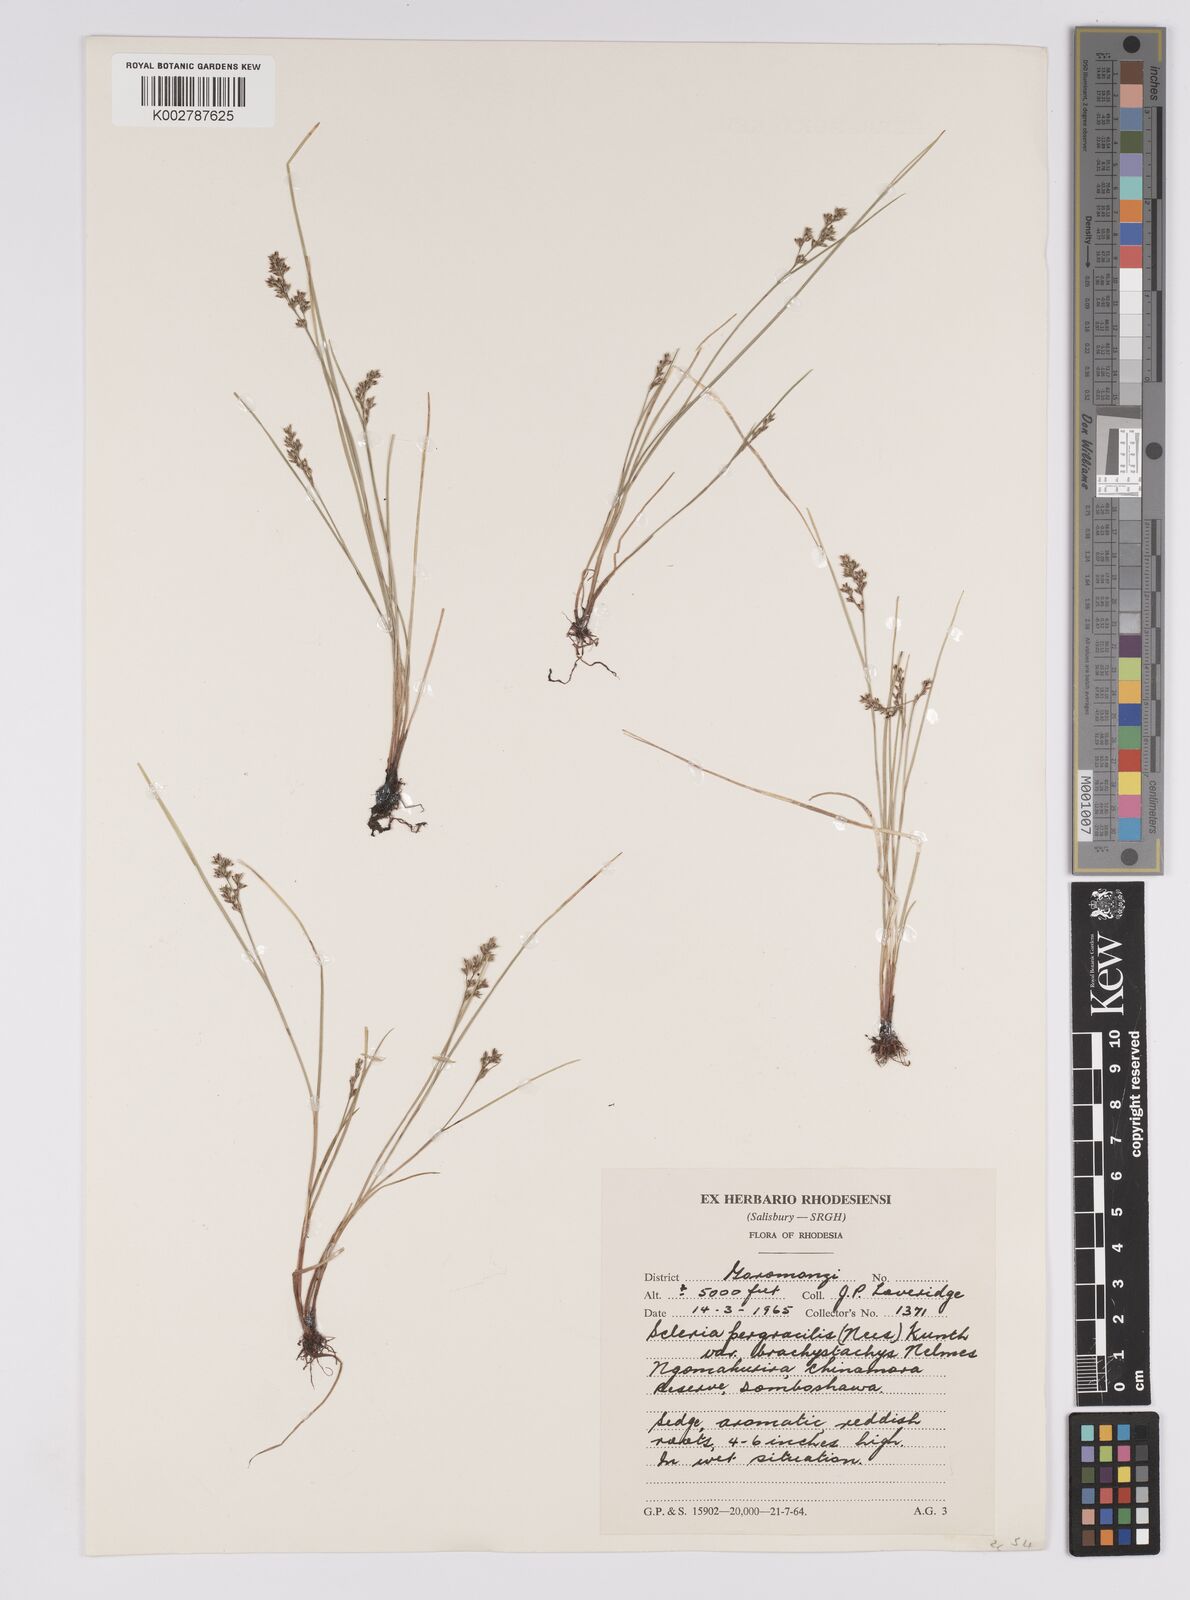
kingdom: Plantae
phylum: Tracheophyta
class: Liliopsida
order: Poales
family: Cyperaceae
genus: Scleria
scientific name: Scleria pulchella
